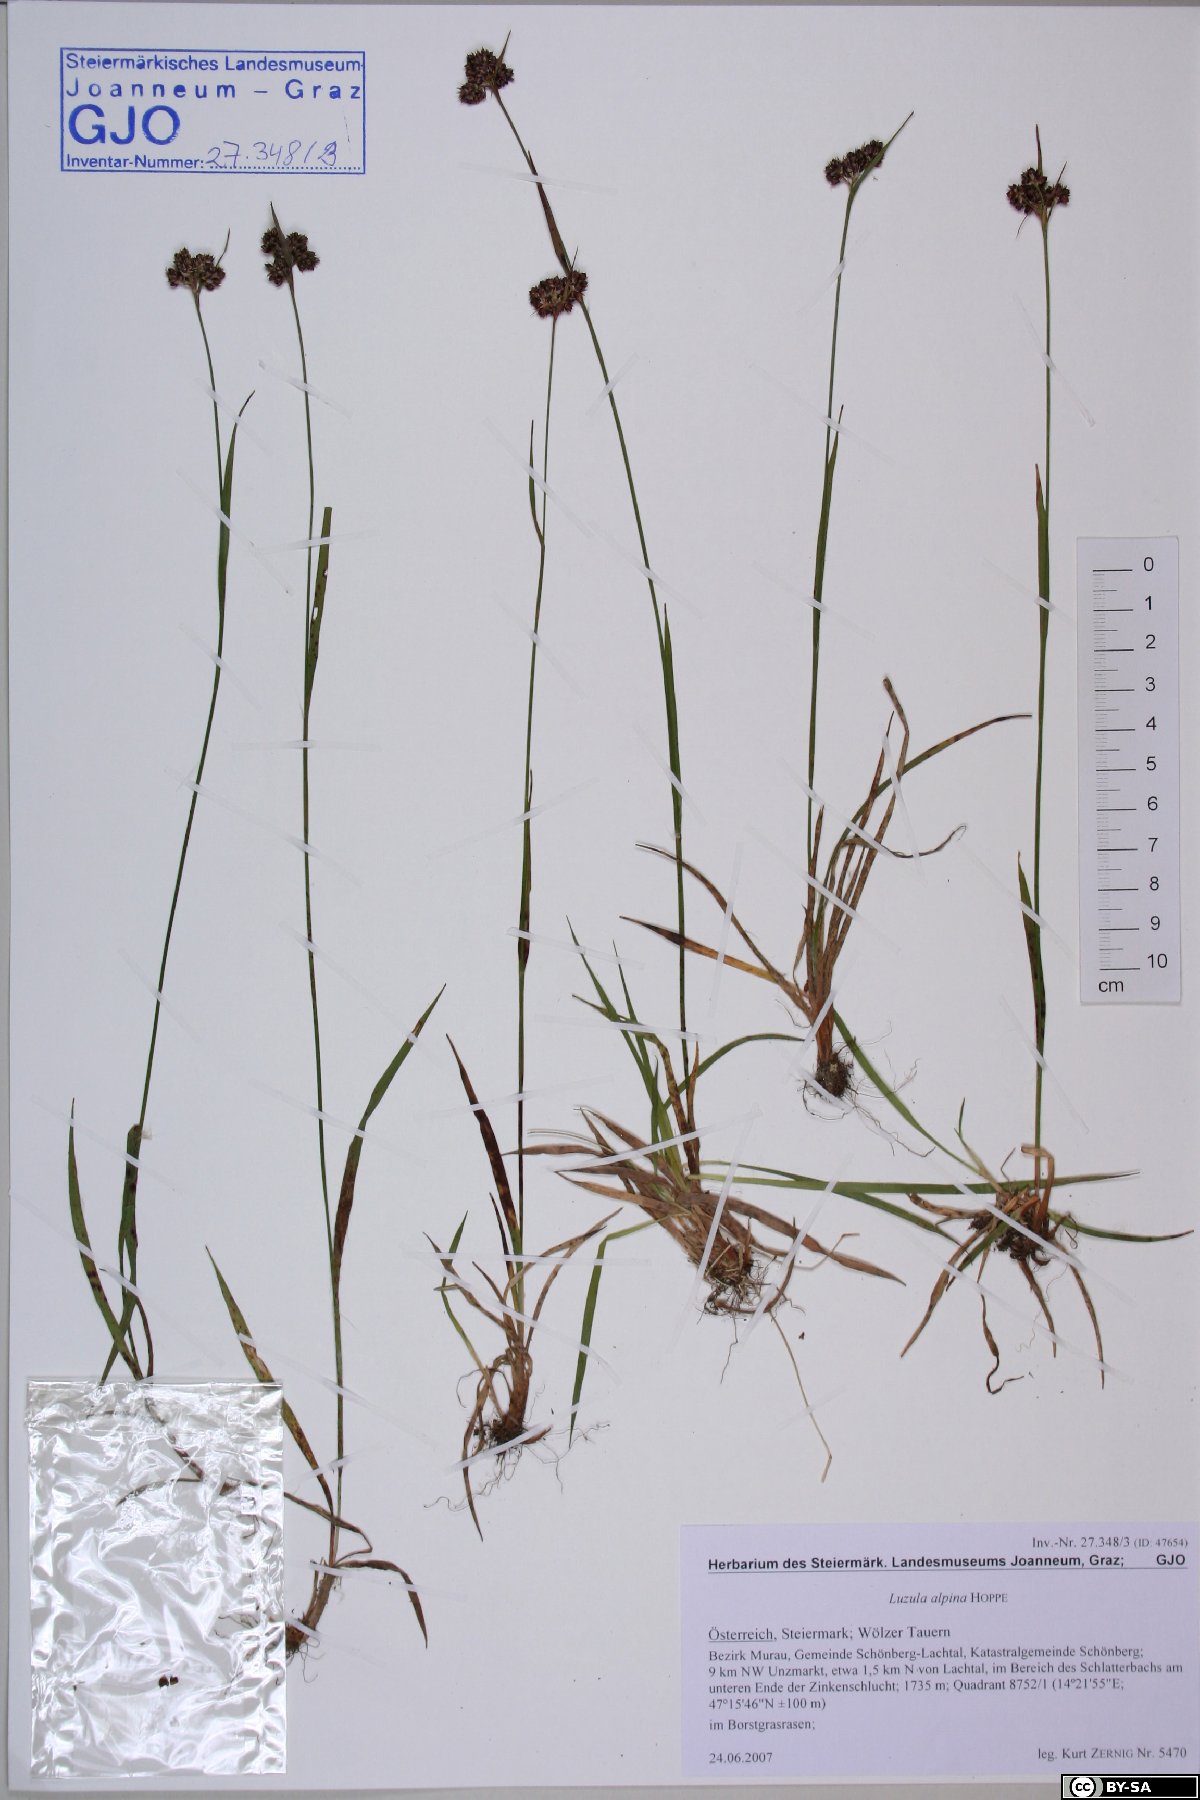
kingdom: Plantae
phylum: Tracheophyta
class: Liliopsida
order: Poales
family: Juncaceae
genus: Luzula
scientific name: Luzula alpina
